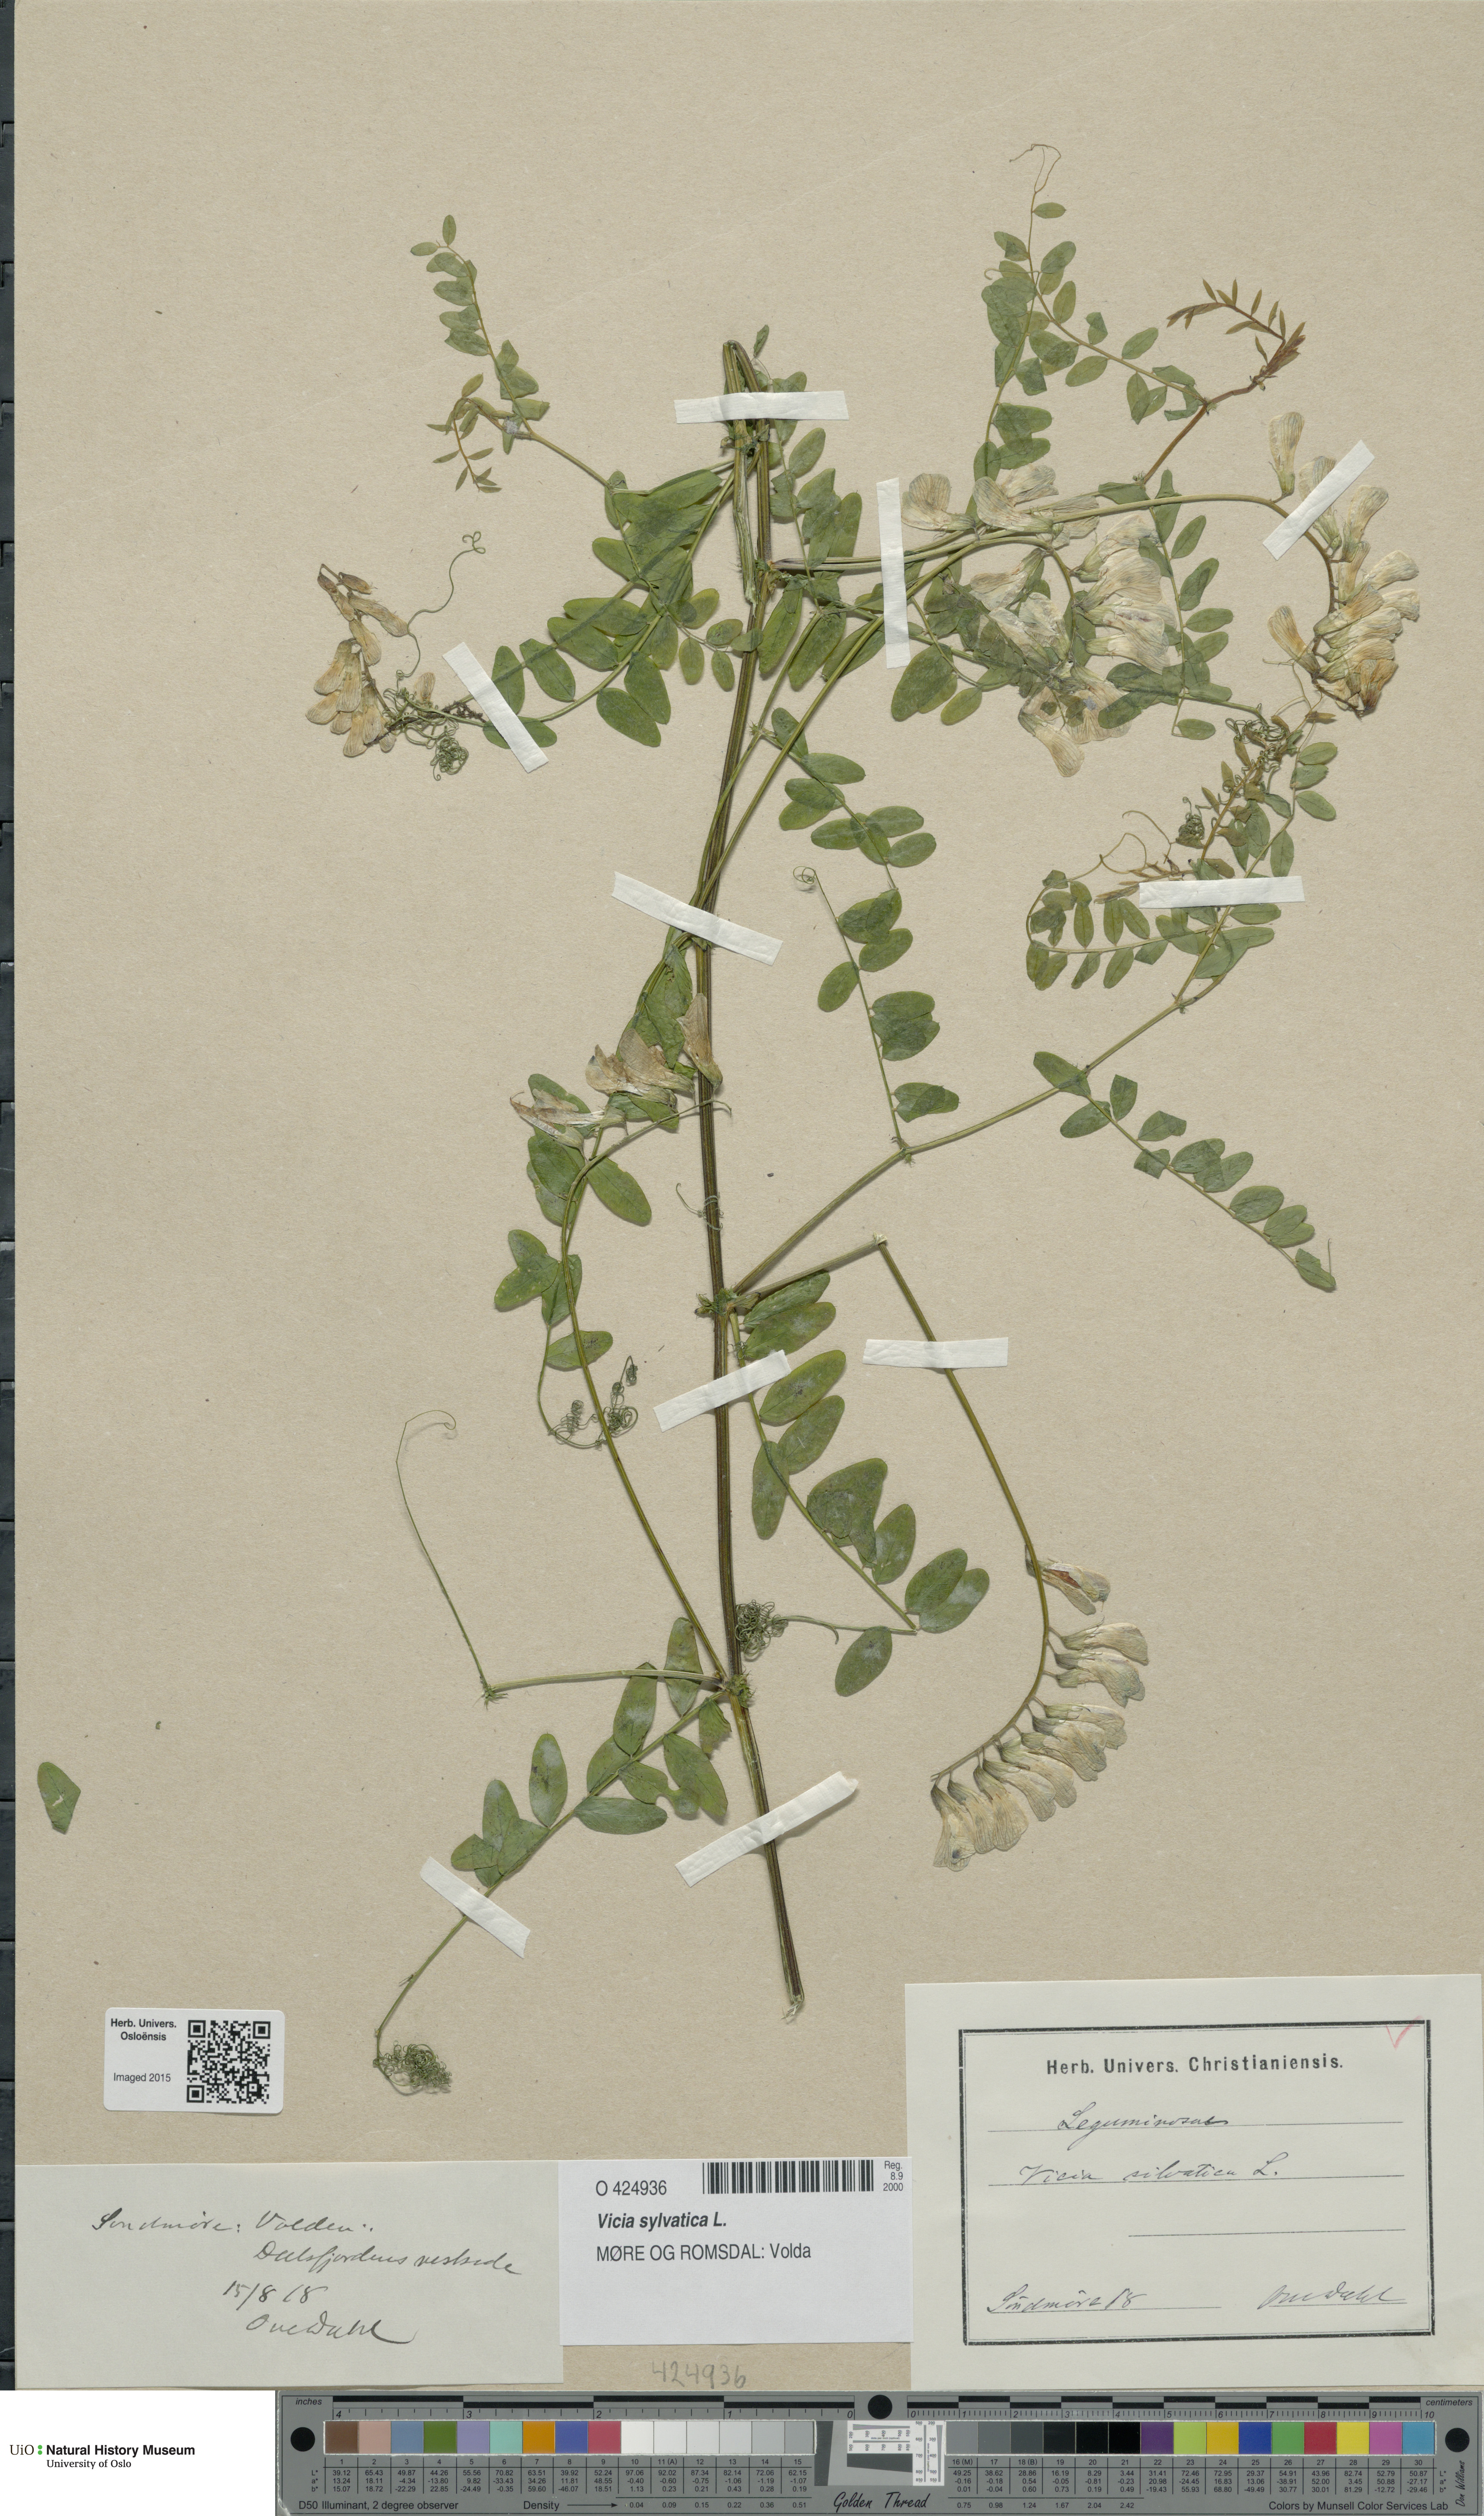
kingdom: Plantae
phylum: Tracheophyta
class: Magnoliopsida
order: Fabales
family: Fabaceae
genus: Vicia
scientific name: Vicia sylvatica
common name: Wood vetch
